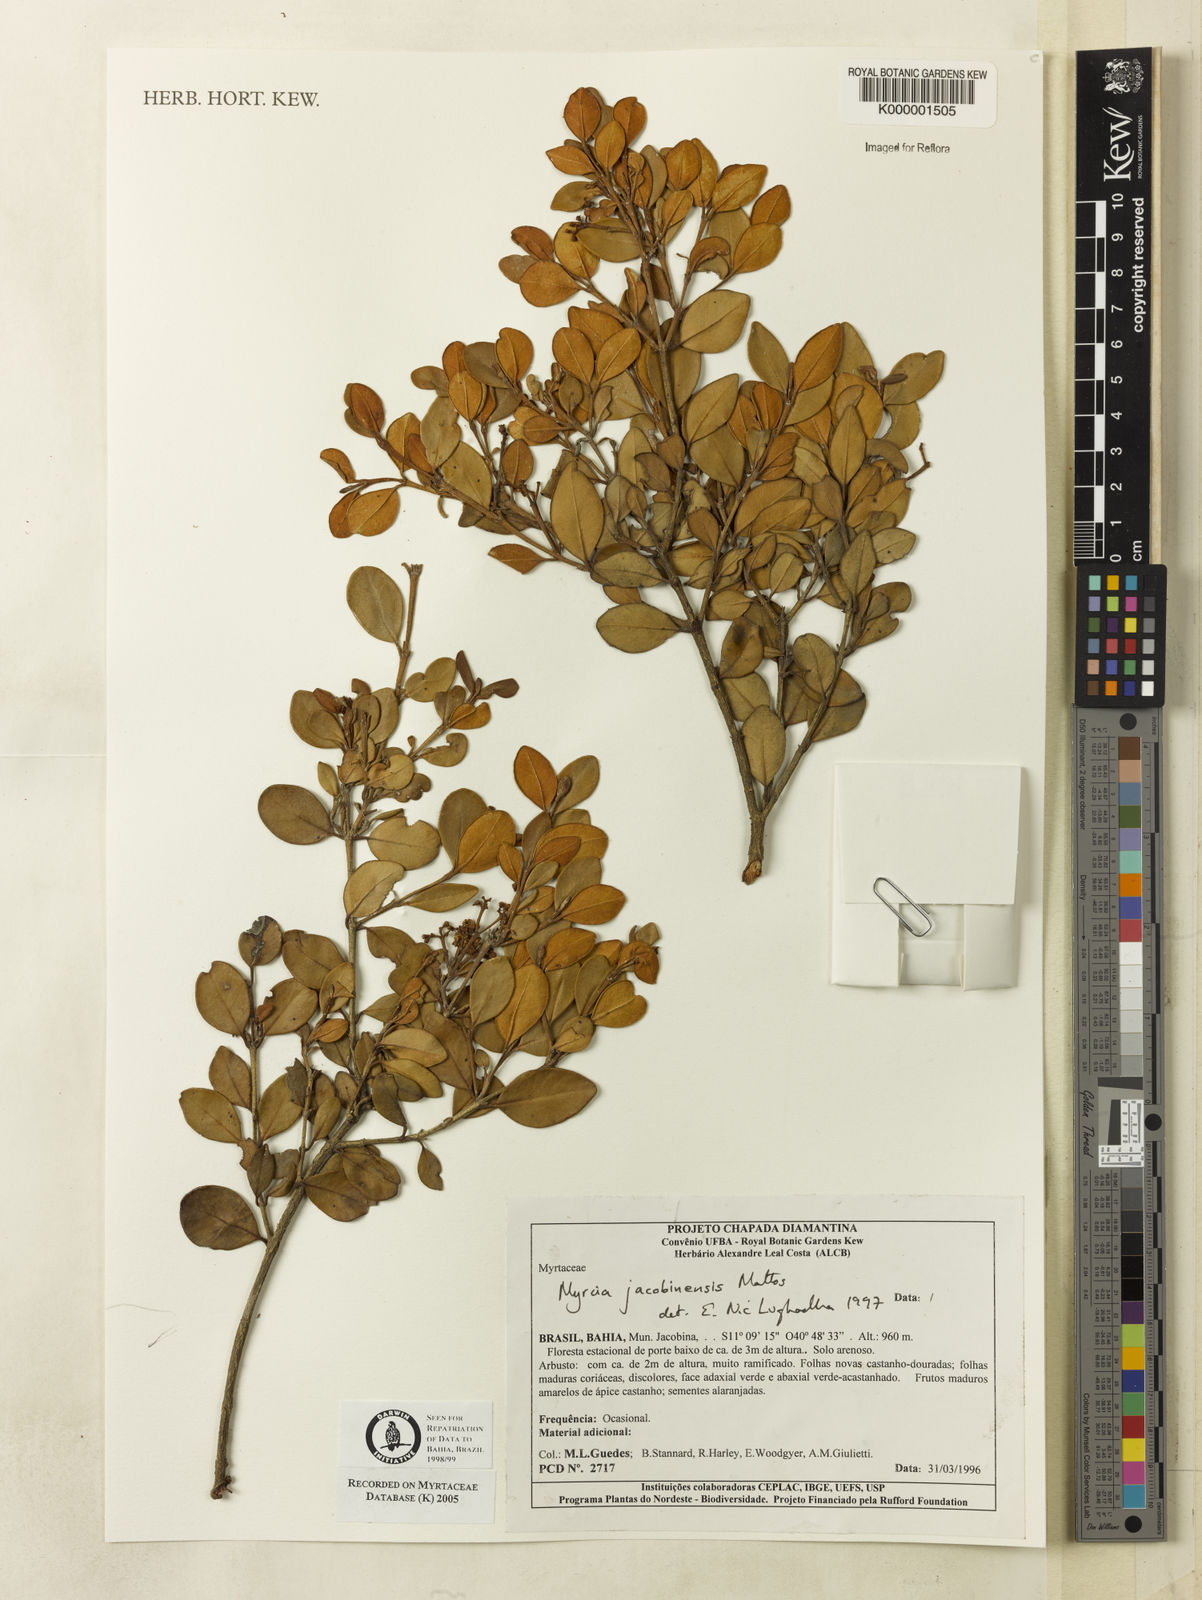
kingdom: Plantae
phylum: Tracheophyta
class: Magnoliopsida
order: Myrtales
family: Myrtaceae
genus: Myrcia
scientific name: Myrcia jacobinensis
